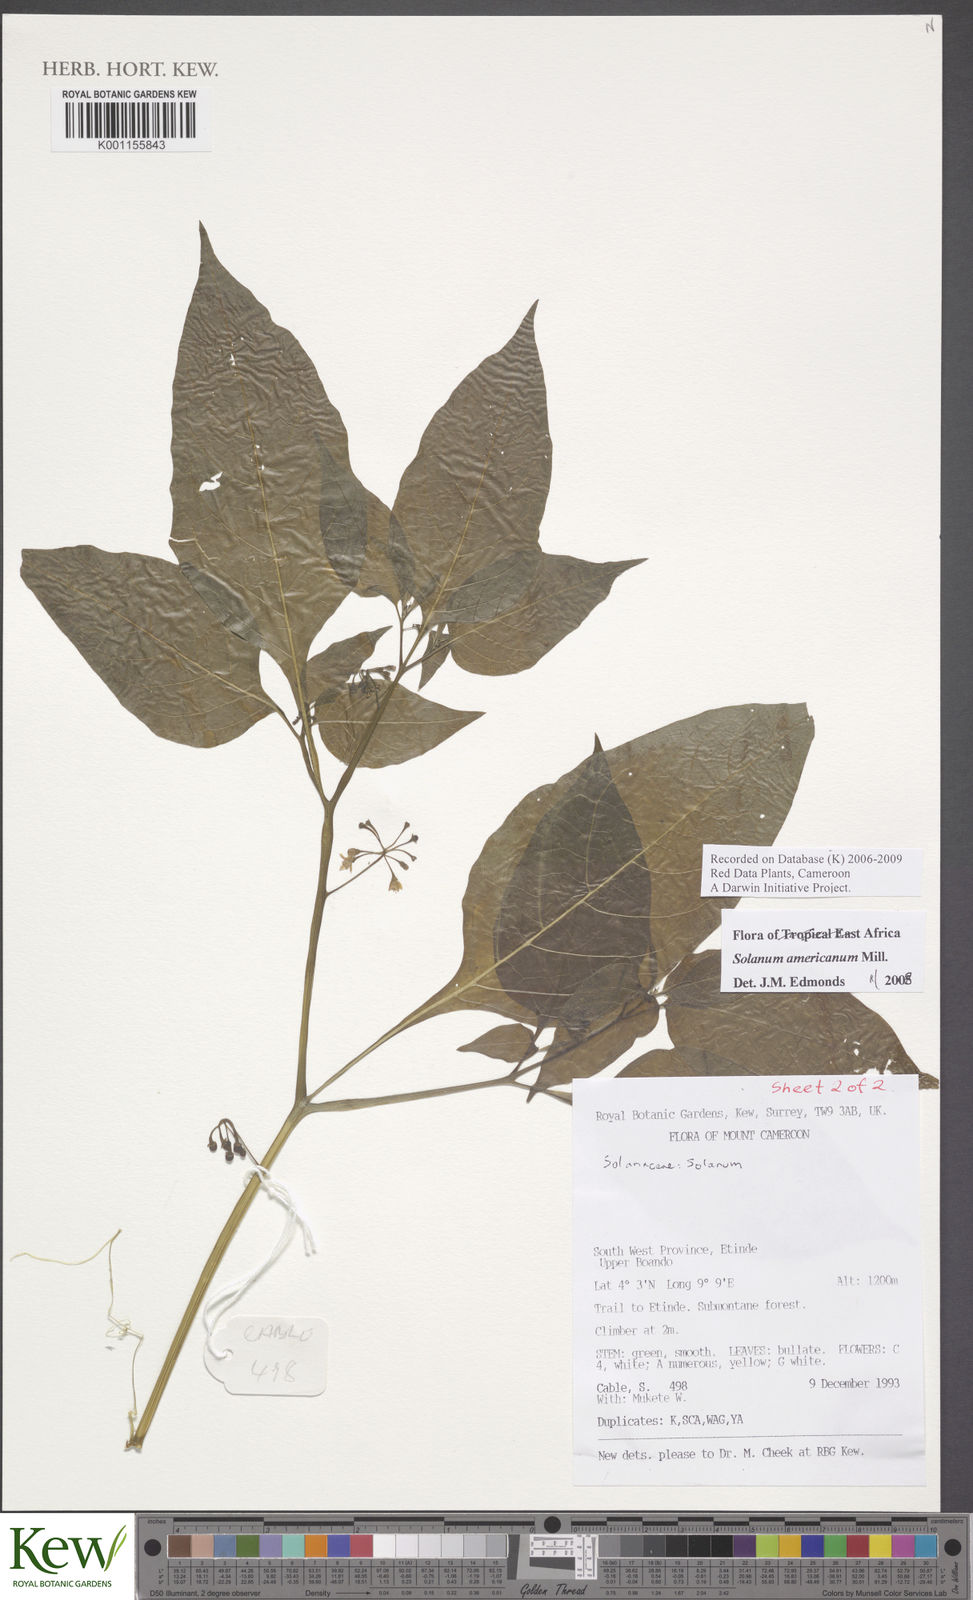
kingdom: Plantae
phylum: Tracheophyta
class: Magnoliopsida
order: Solanales
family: Solanaceae
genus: Solanum
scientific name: Solanum tarderemotum
